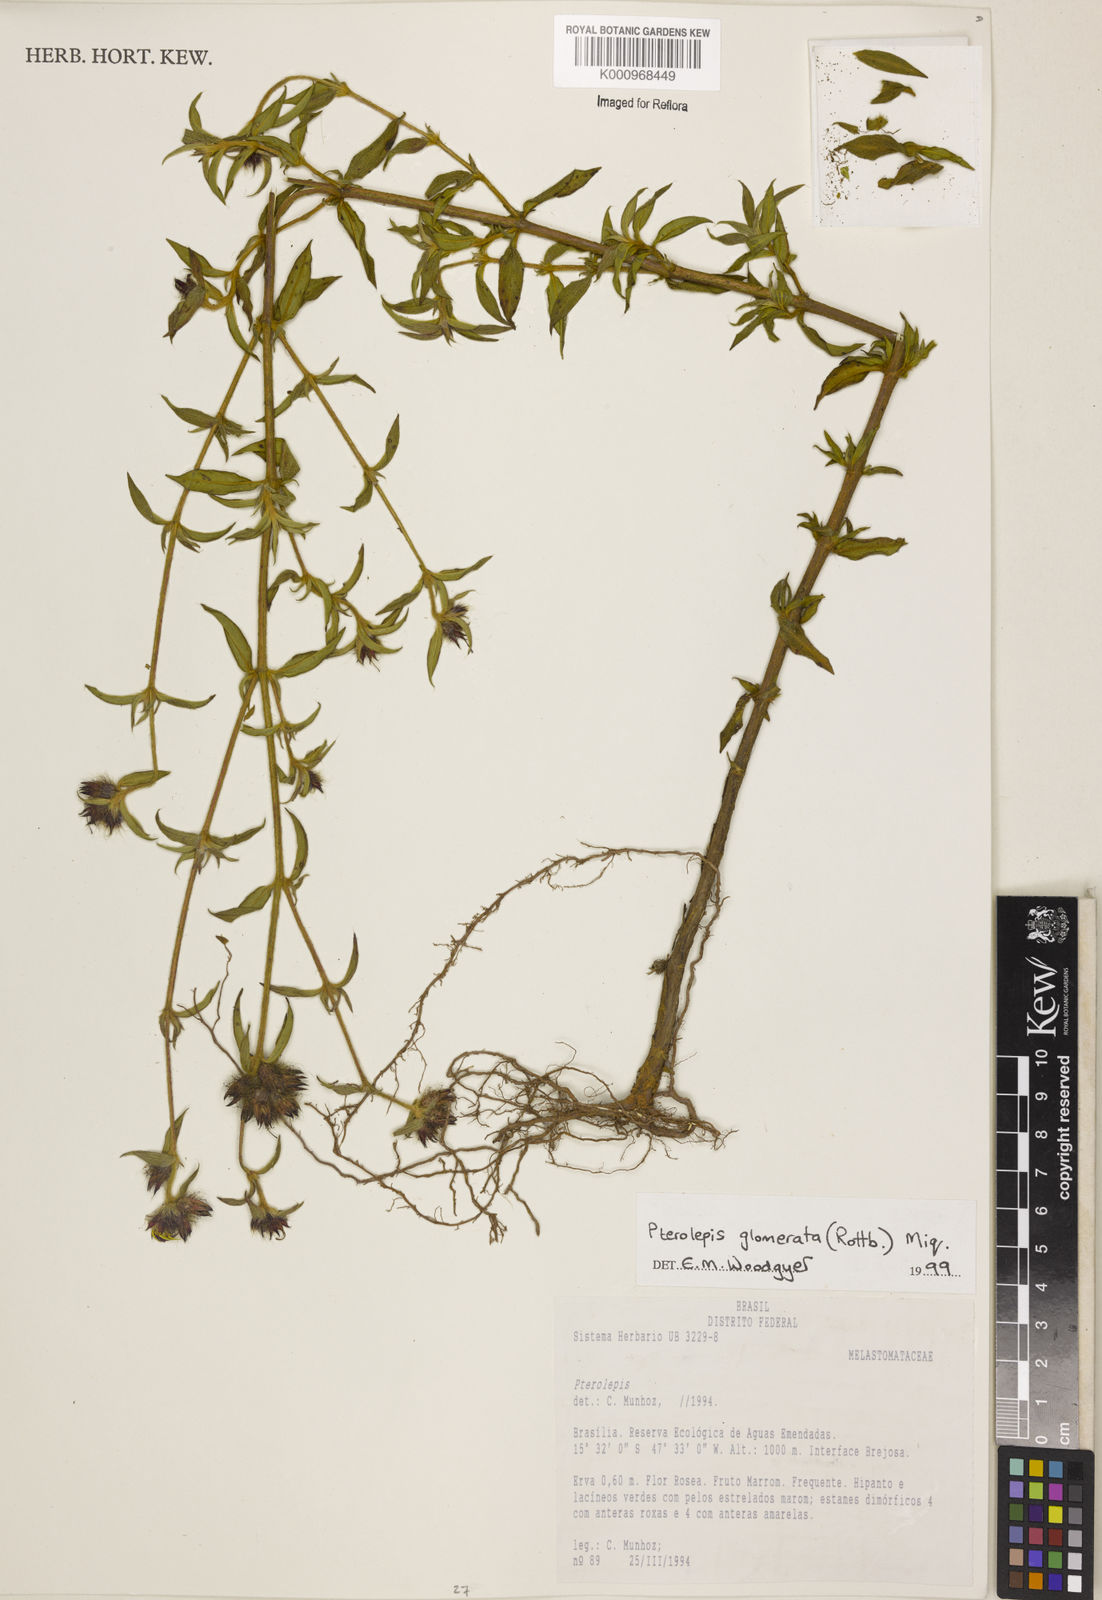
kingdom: Plantae
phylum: Tracheophyta
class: Magnoliopsida
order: Myrtales
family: Melastomataceae
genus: Pterolepis
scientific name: Pterolepis glomerata
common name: False meadowbeauty
